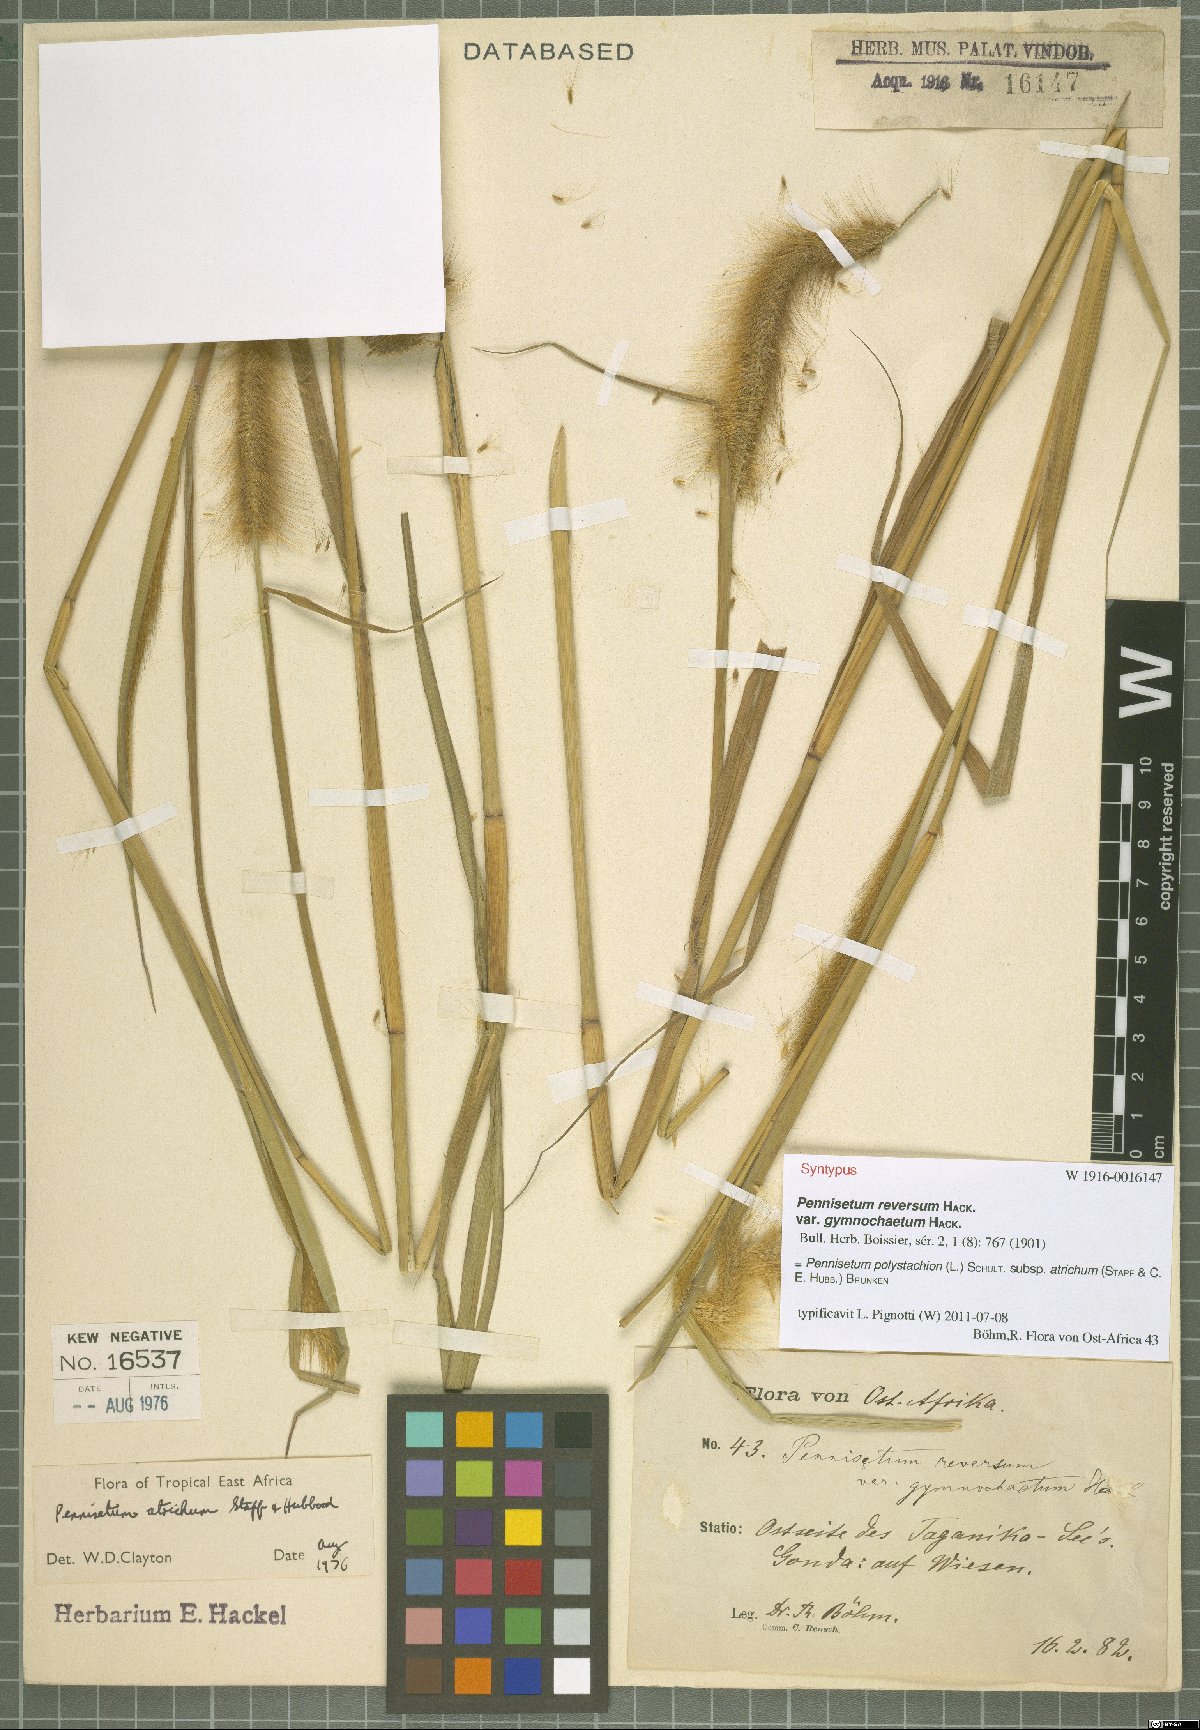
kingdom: Plantae
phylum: Tracheophyta
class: Liliopsida
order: Poales
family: Poaceae
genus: Cenchrus
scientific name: Cenchrus setosus
